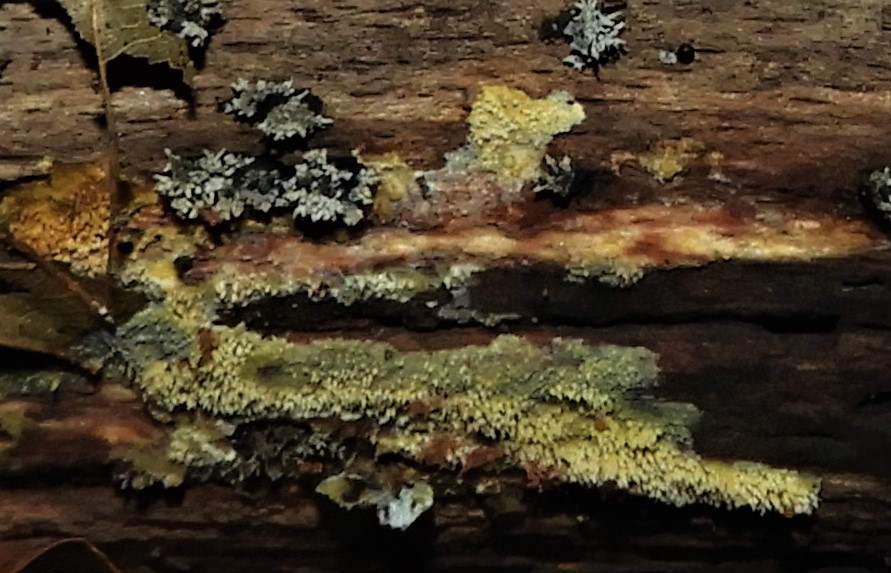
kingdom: Fungi
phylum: Basidiomycota
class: Agaricomycetes
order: Polyporales
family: Meruliaceae
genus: Mycoacia
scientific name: Mycoacia uda
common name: citrongul vokspig
